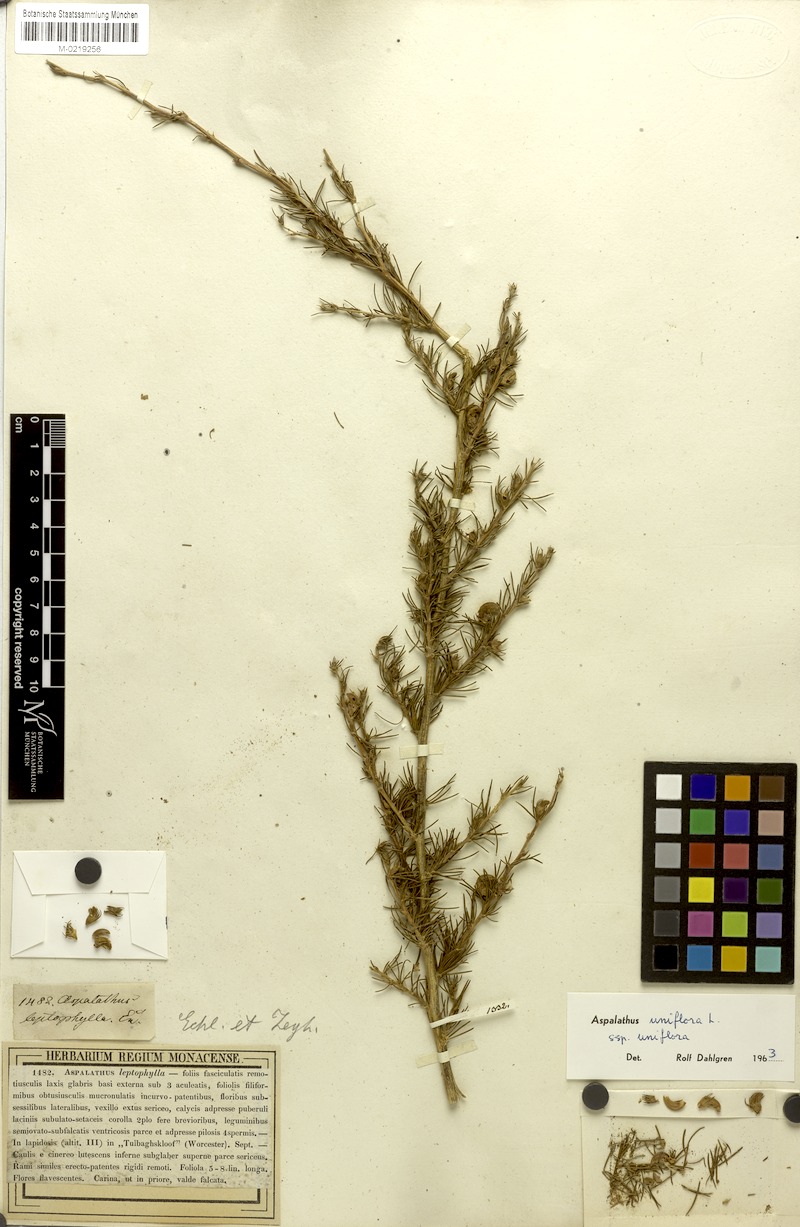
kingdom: Plantae
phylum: Tracheophyta
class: Magnoliopsida
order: Fabales
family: Fabaceae
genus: Aspalathus
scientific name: Aspalathus uniflora
